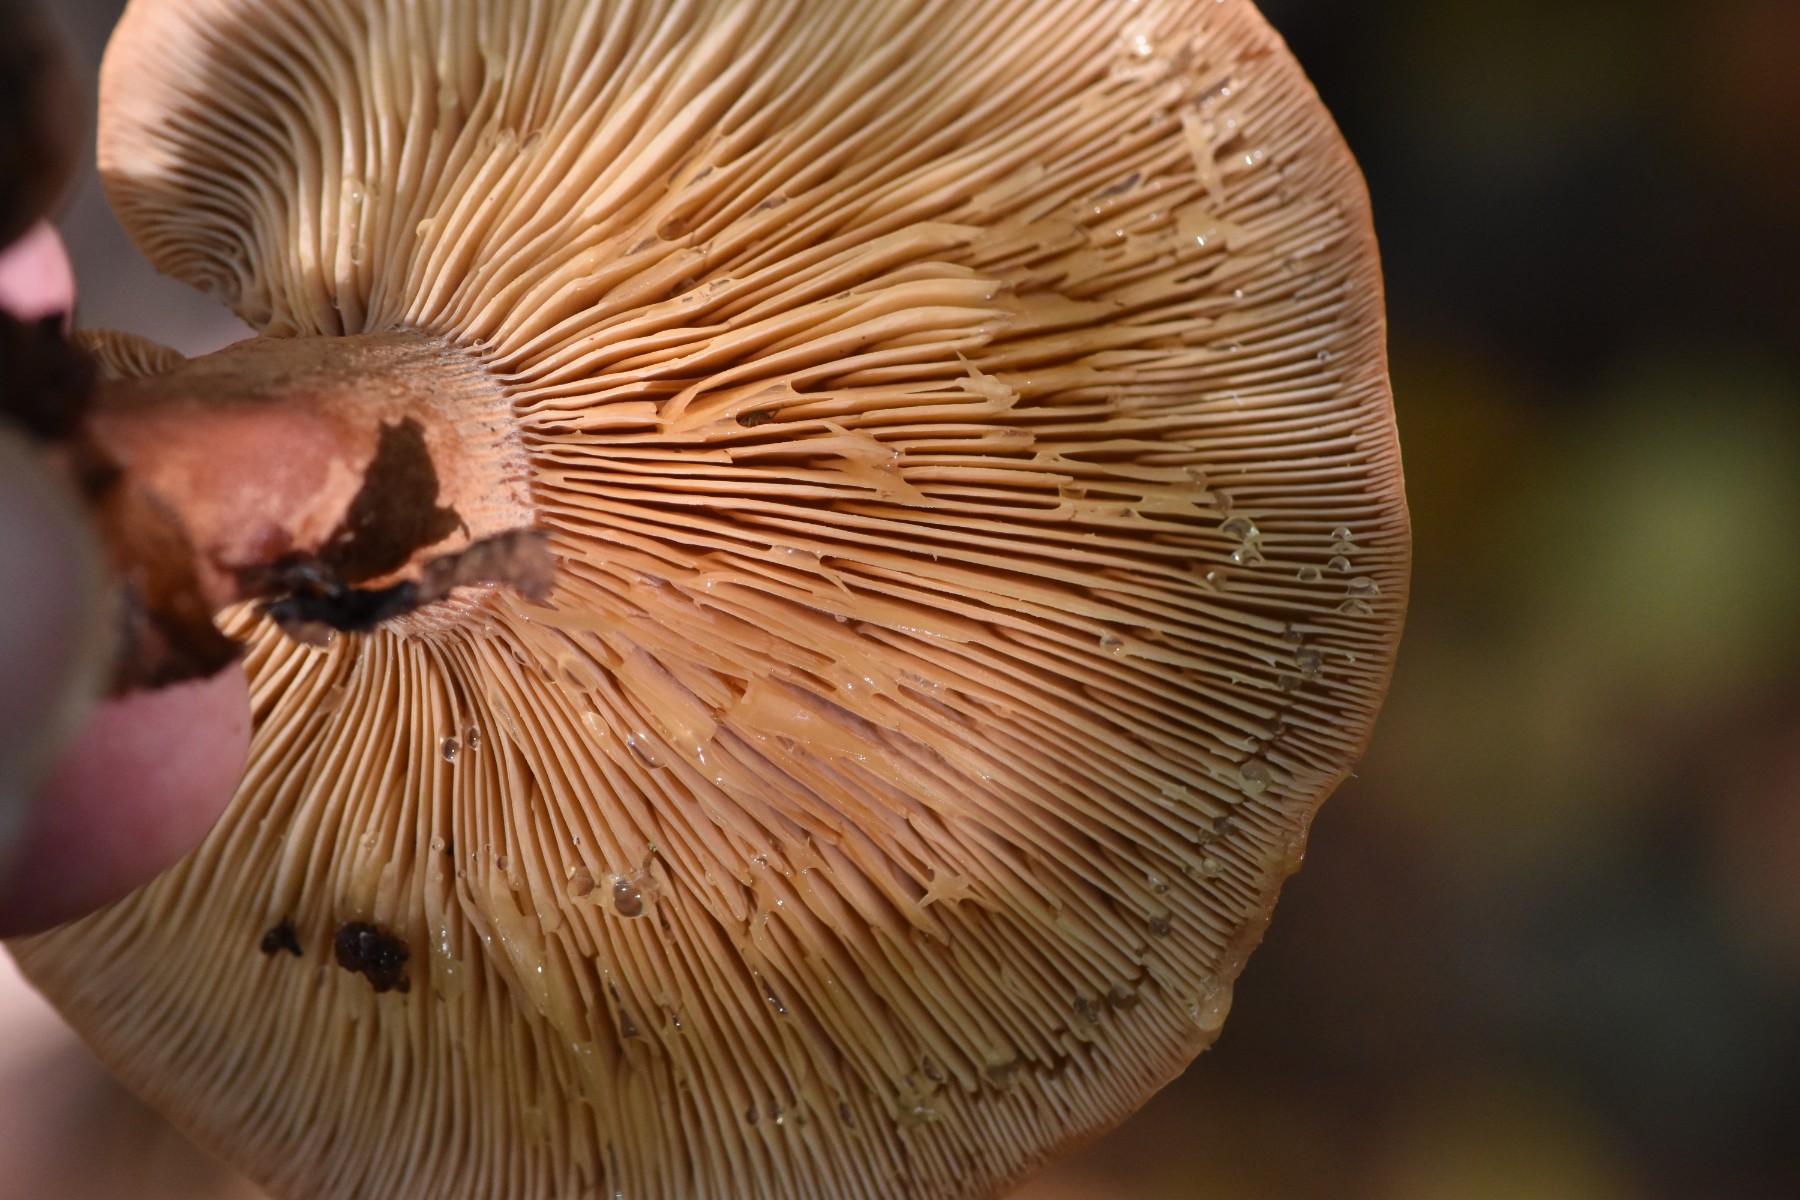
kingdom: Fungi
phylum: Basidiomycota
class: Agaricomycetes
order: Russulales
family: Russulaceae
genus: Lactarius
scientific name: Lactarius helvus
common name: mose-mælkehat
